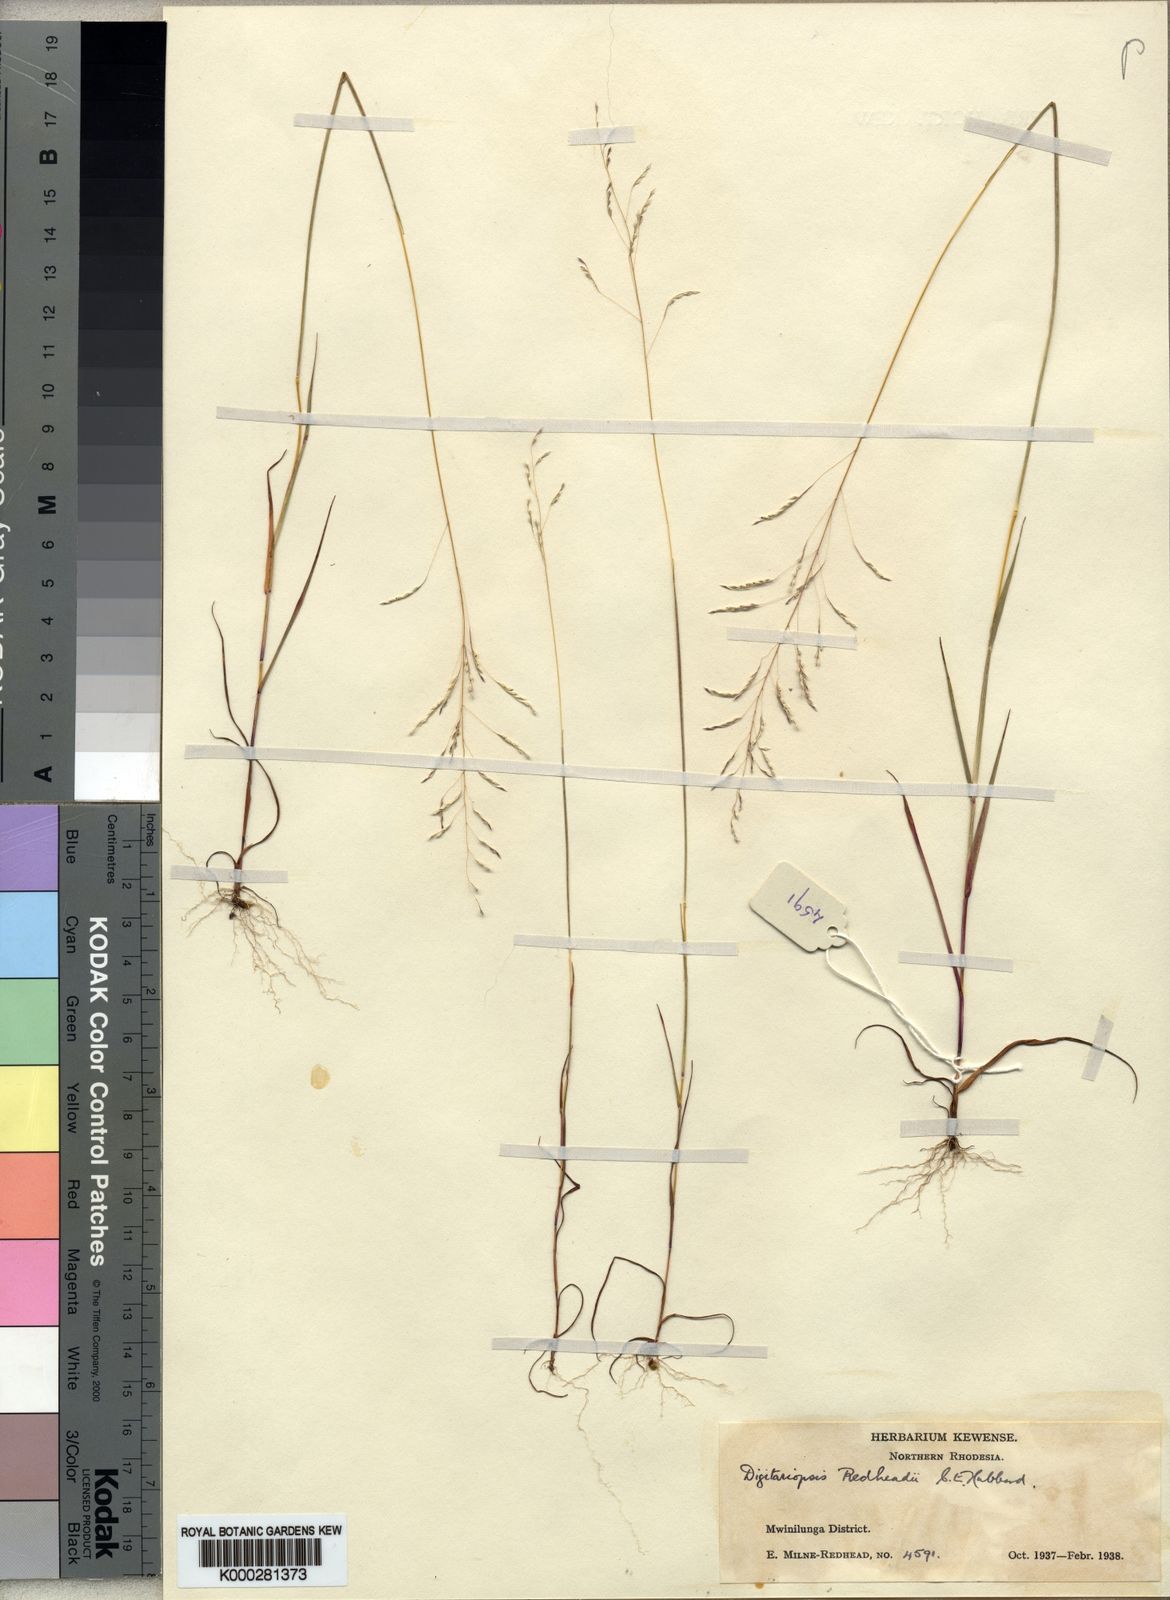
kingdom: Plantae
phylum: Tracheophyta
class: Liliopsida
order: Poales
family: Poaceae
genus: Digitaria
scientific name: Digitaria redheadii
